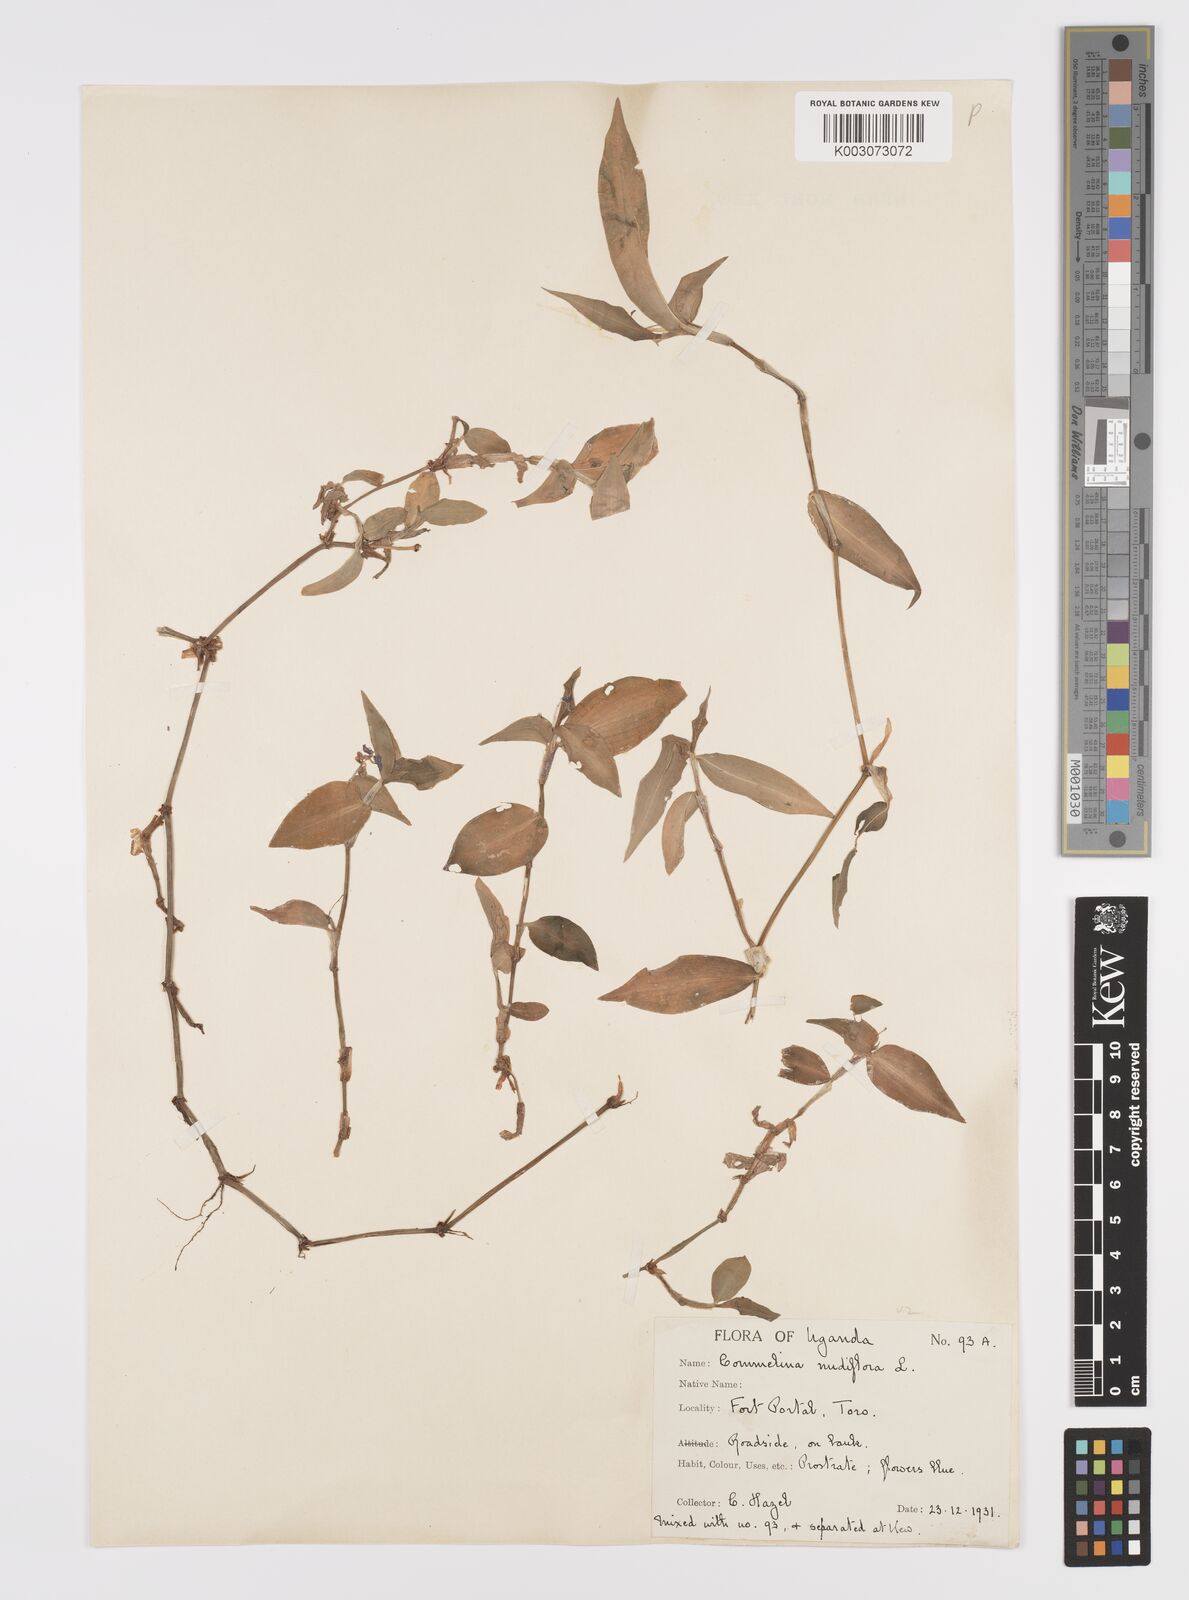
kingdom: Plantae
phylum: Tracheophyta
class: Liliopsida
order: Commelinales
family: Commelinaceae
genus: Commelina
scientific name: Commelina diffusa
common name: Climbing dayflower
